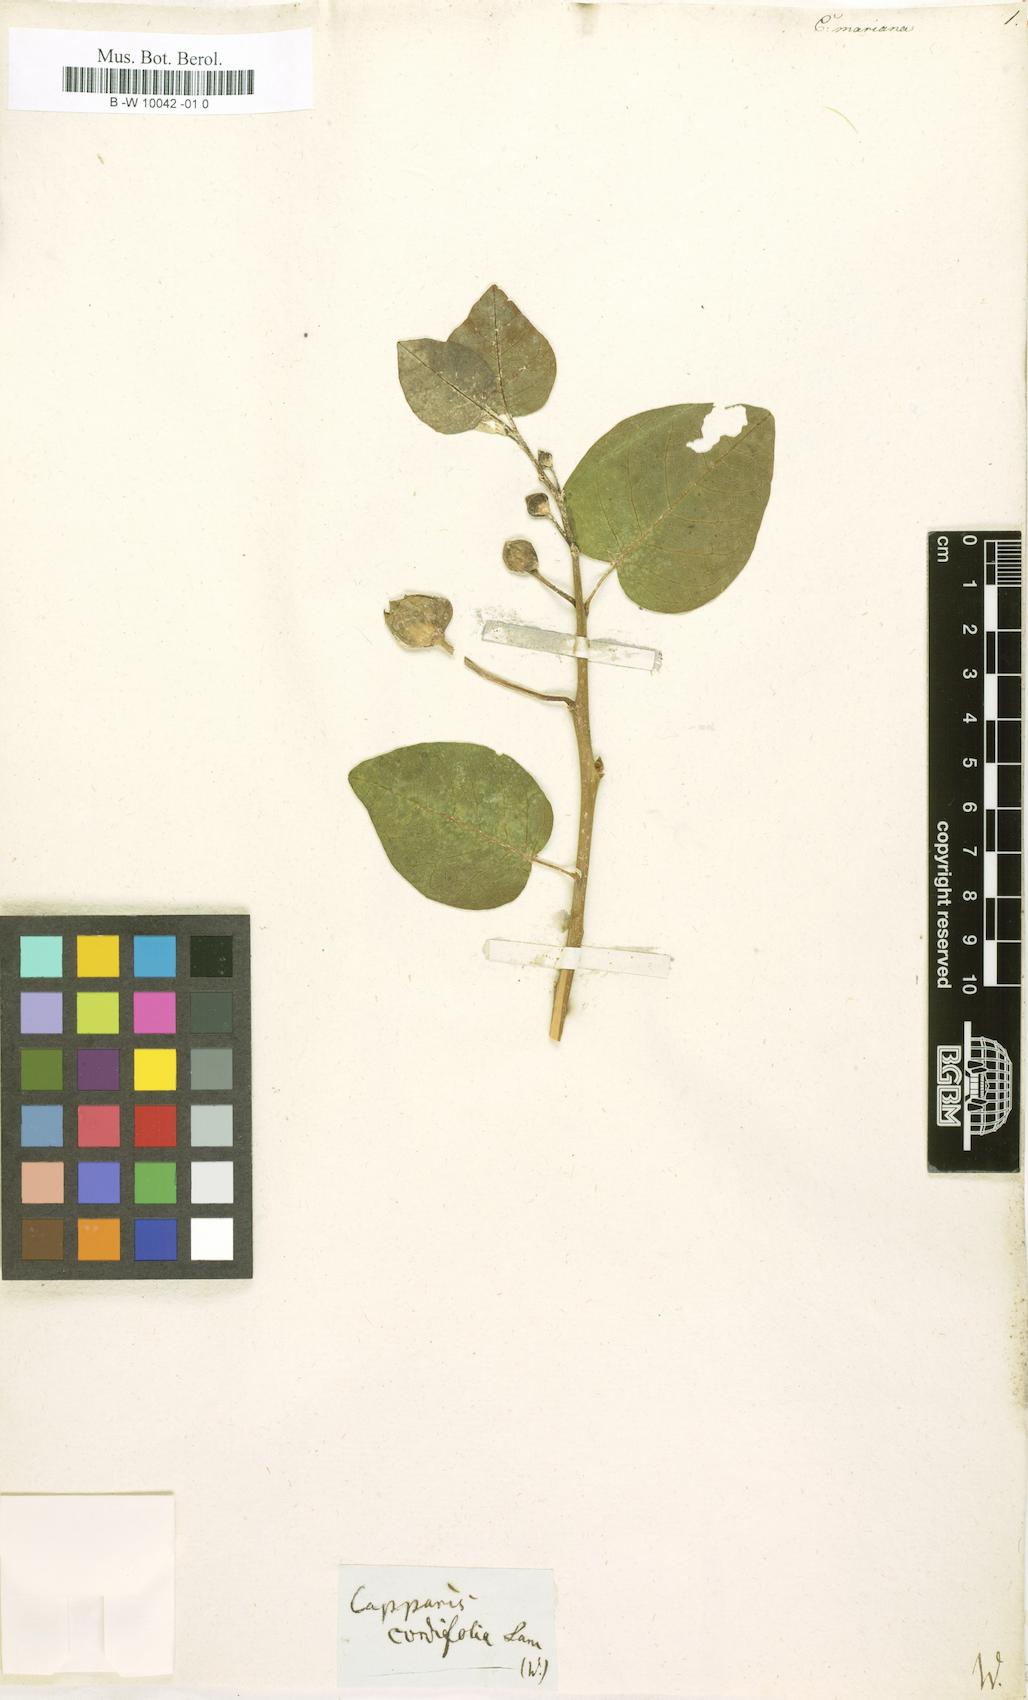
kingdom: Plantae
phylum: Tracheophyta
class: Magnoliopsida
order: Brassicales
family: Capparaceae
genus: Capparis
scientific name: Capparis spinosa
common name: Caper
